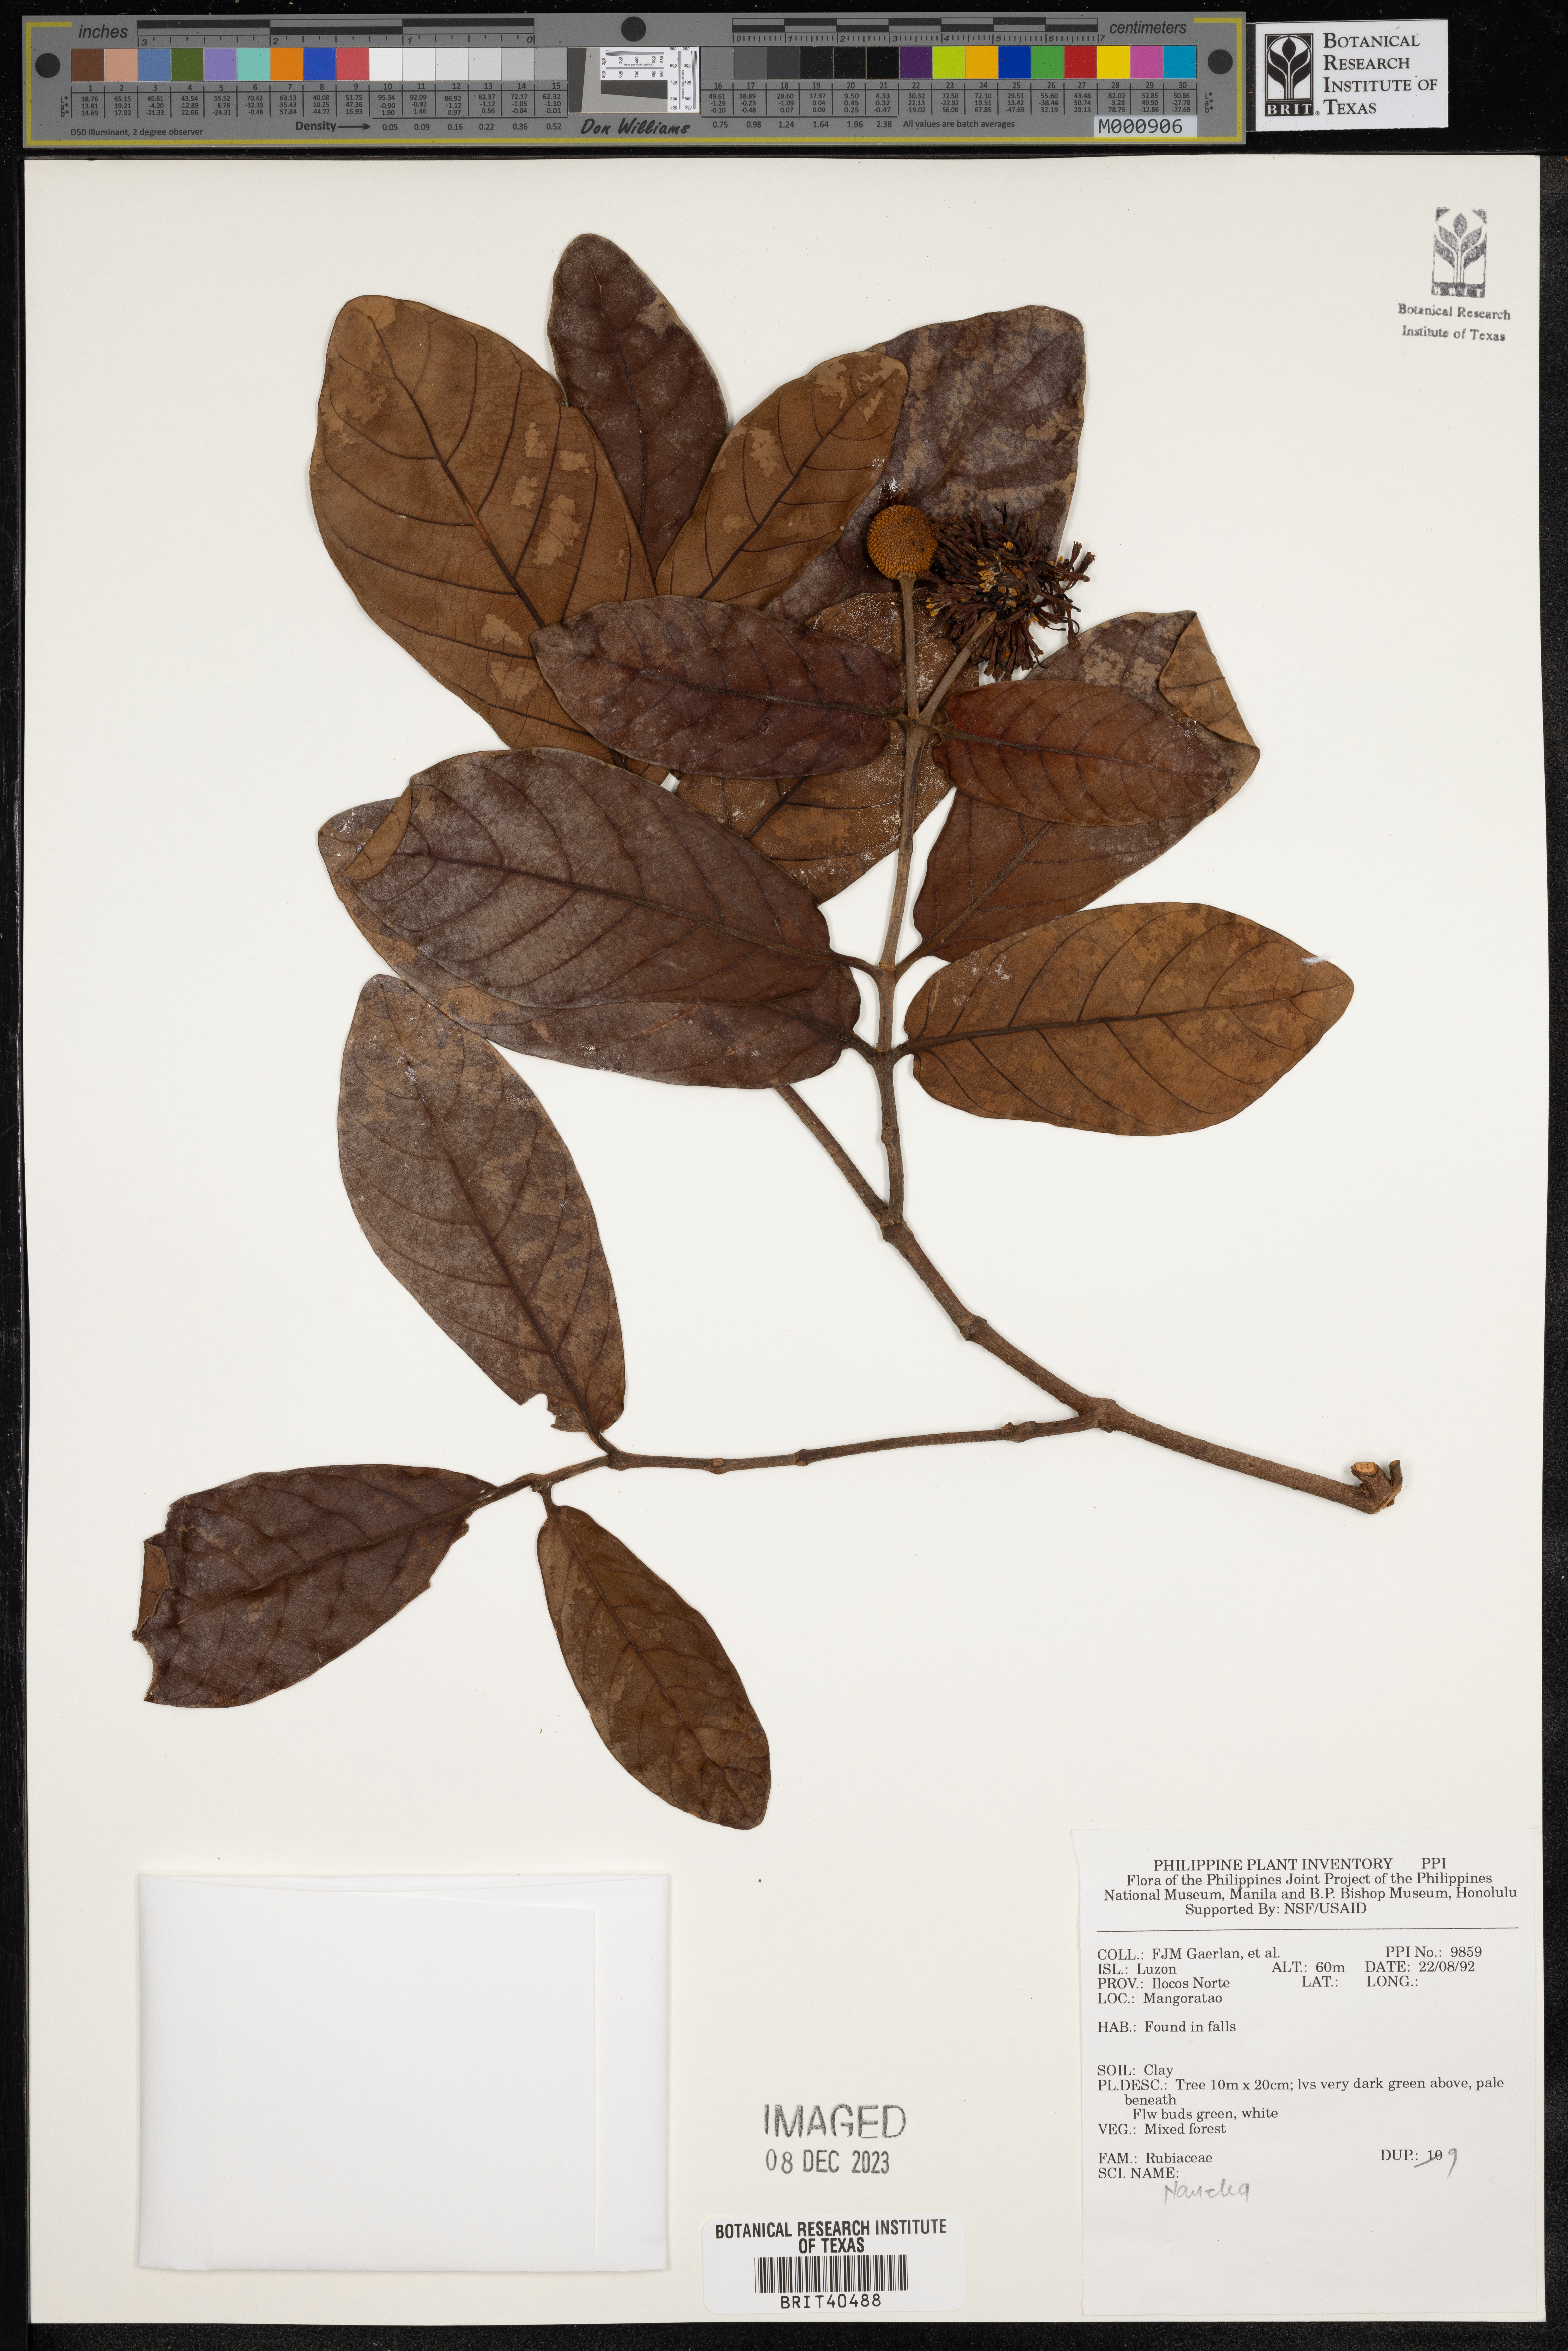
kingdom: Plantae
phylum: Tracheophyta
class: Magnoliopsida
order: Gentianales
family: Rubiaceae
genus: Nauclea
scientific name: Nauclea
